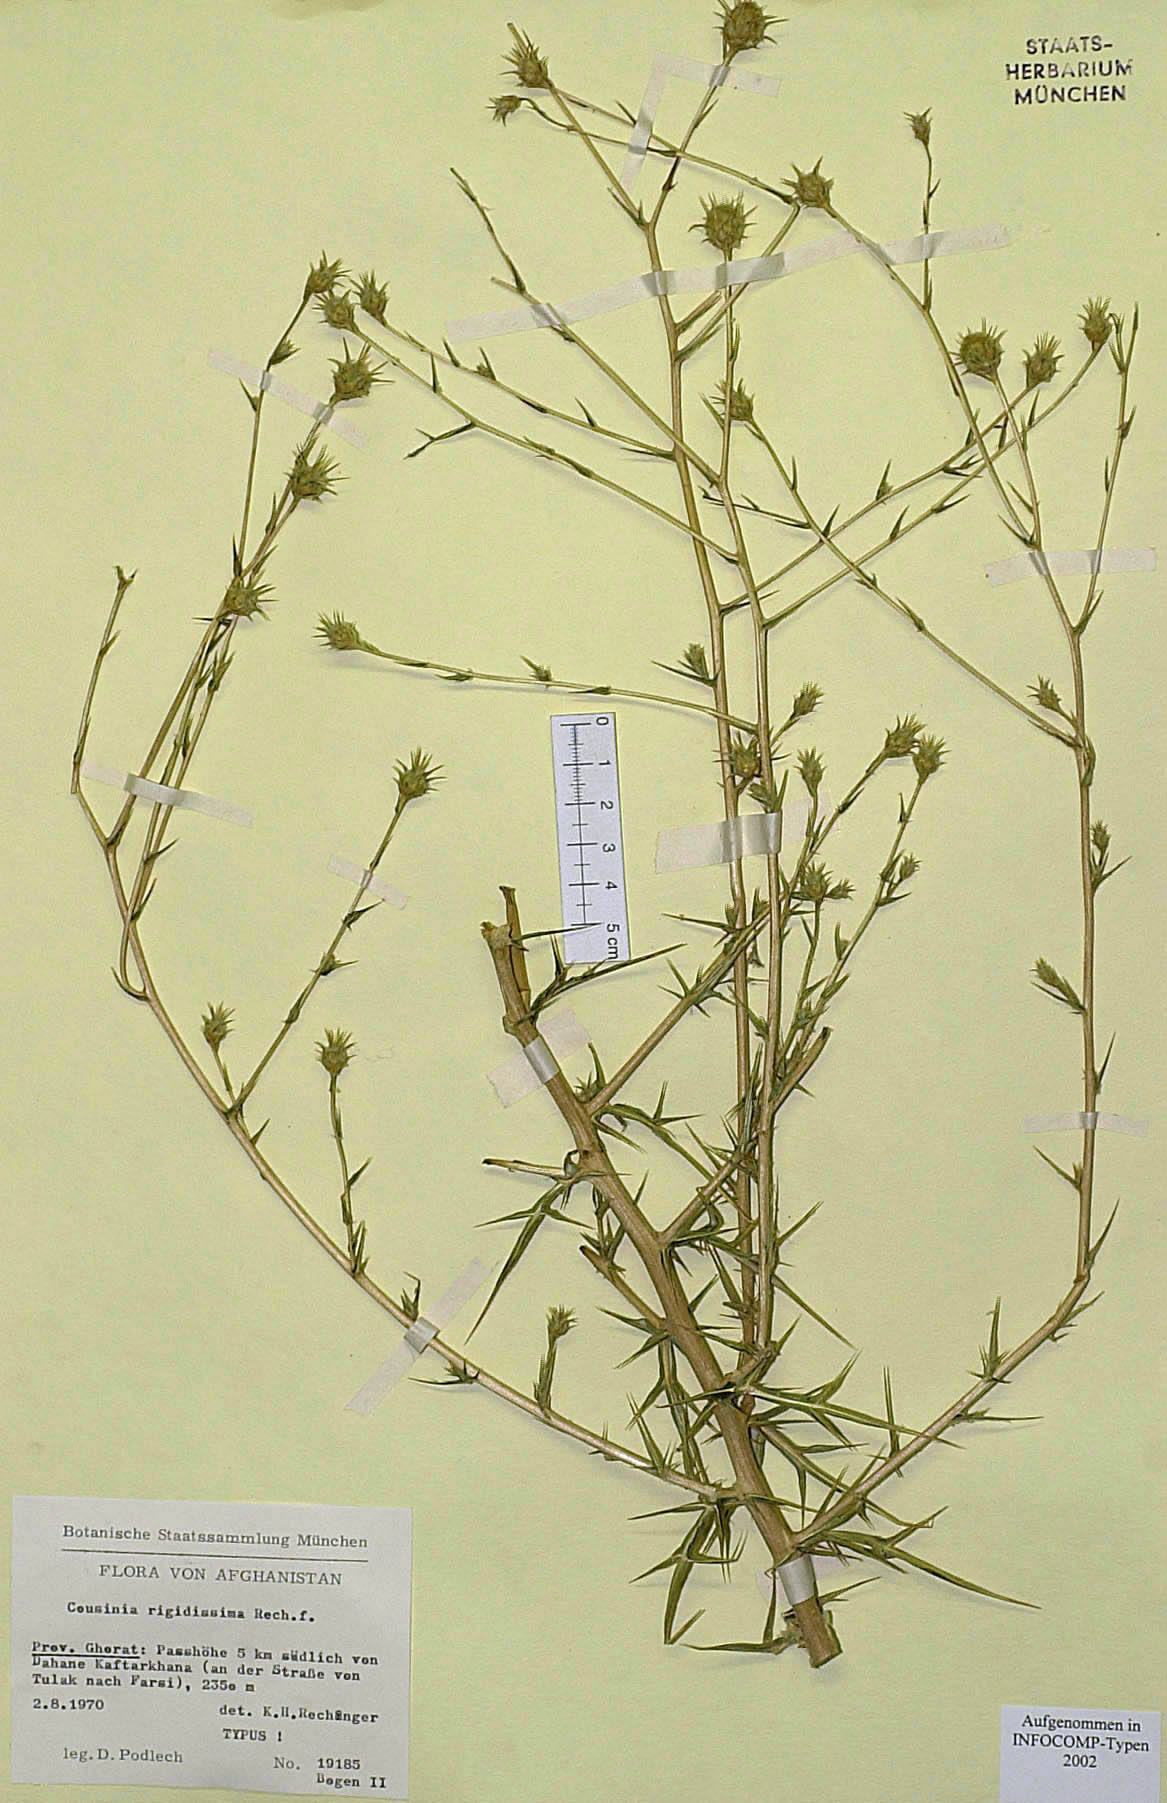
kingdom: Plantae
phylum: Tracheophyta
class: Magnoliopsida
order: Asterales
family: Asteraceae
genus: Cousinia
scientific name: Cousinia rigidissima
